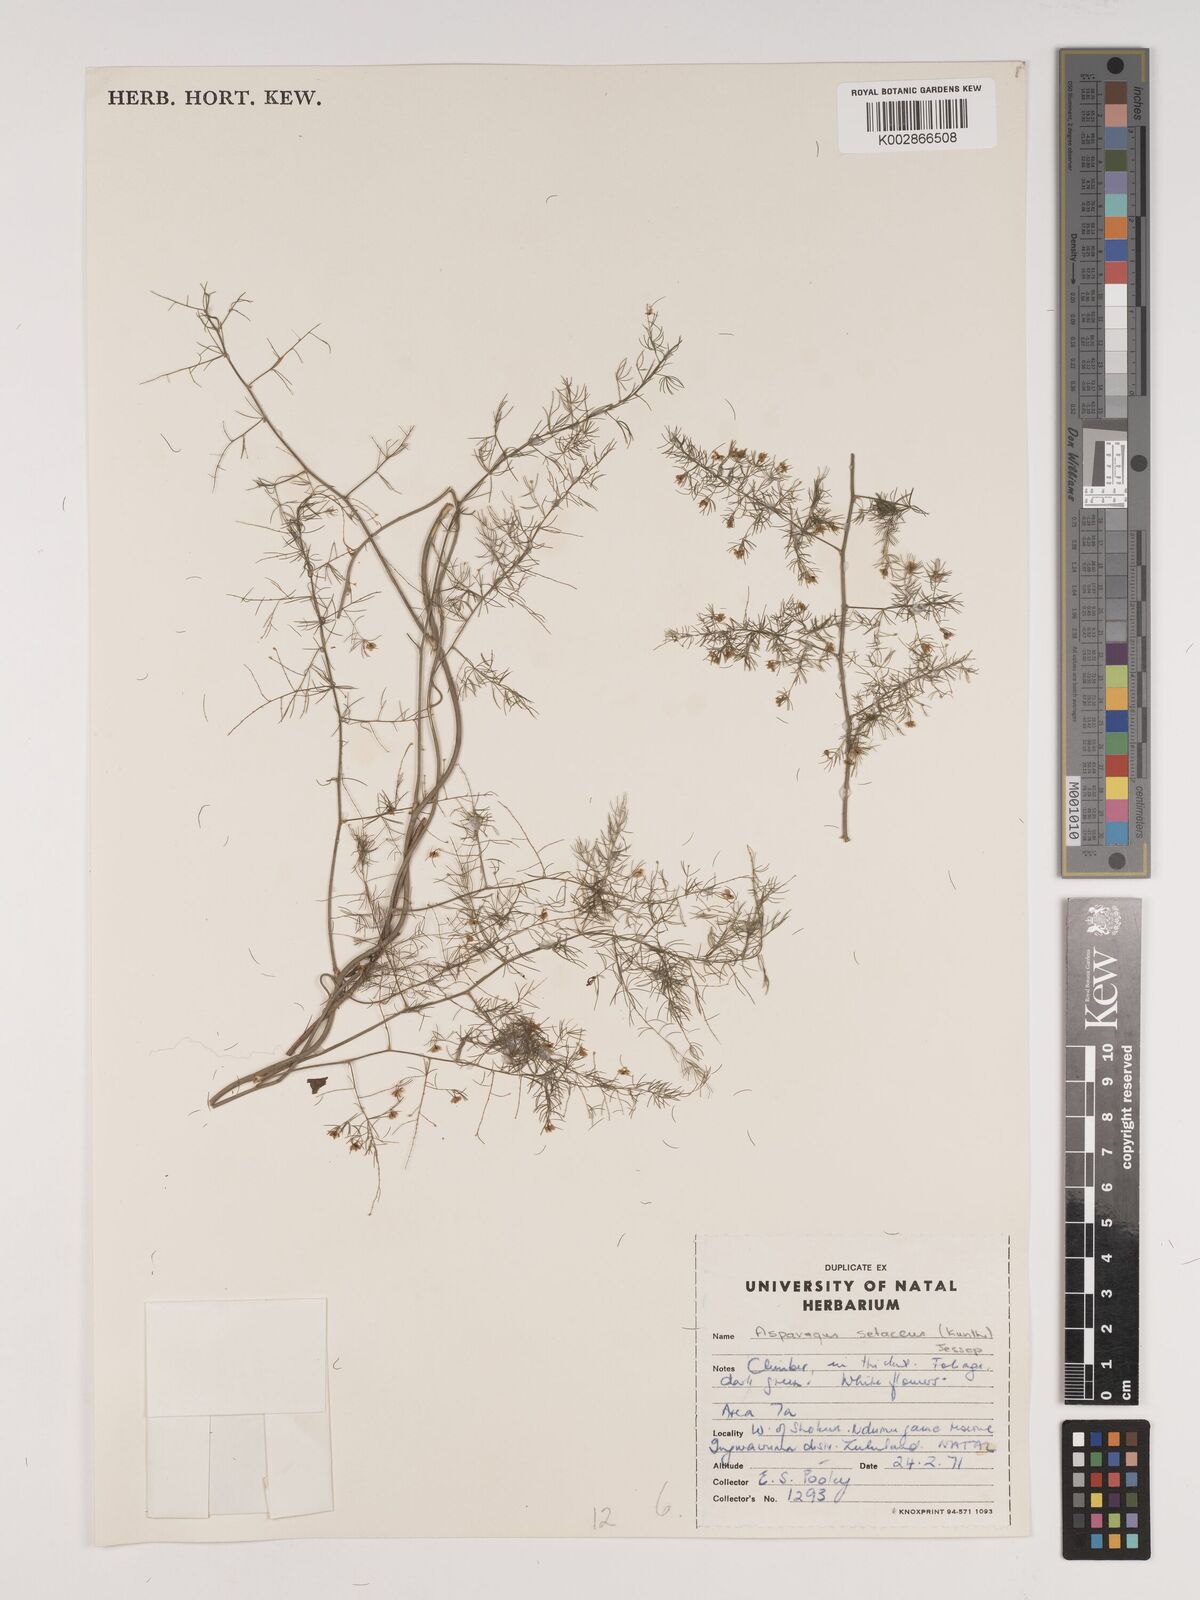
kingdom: Plantae
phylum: Tracheophyta
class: Liliopsida
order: Asparagales
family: Asparagaceae
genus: Asparagus
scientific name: Asparagus setaceus
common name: Common asparagus fern
